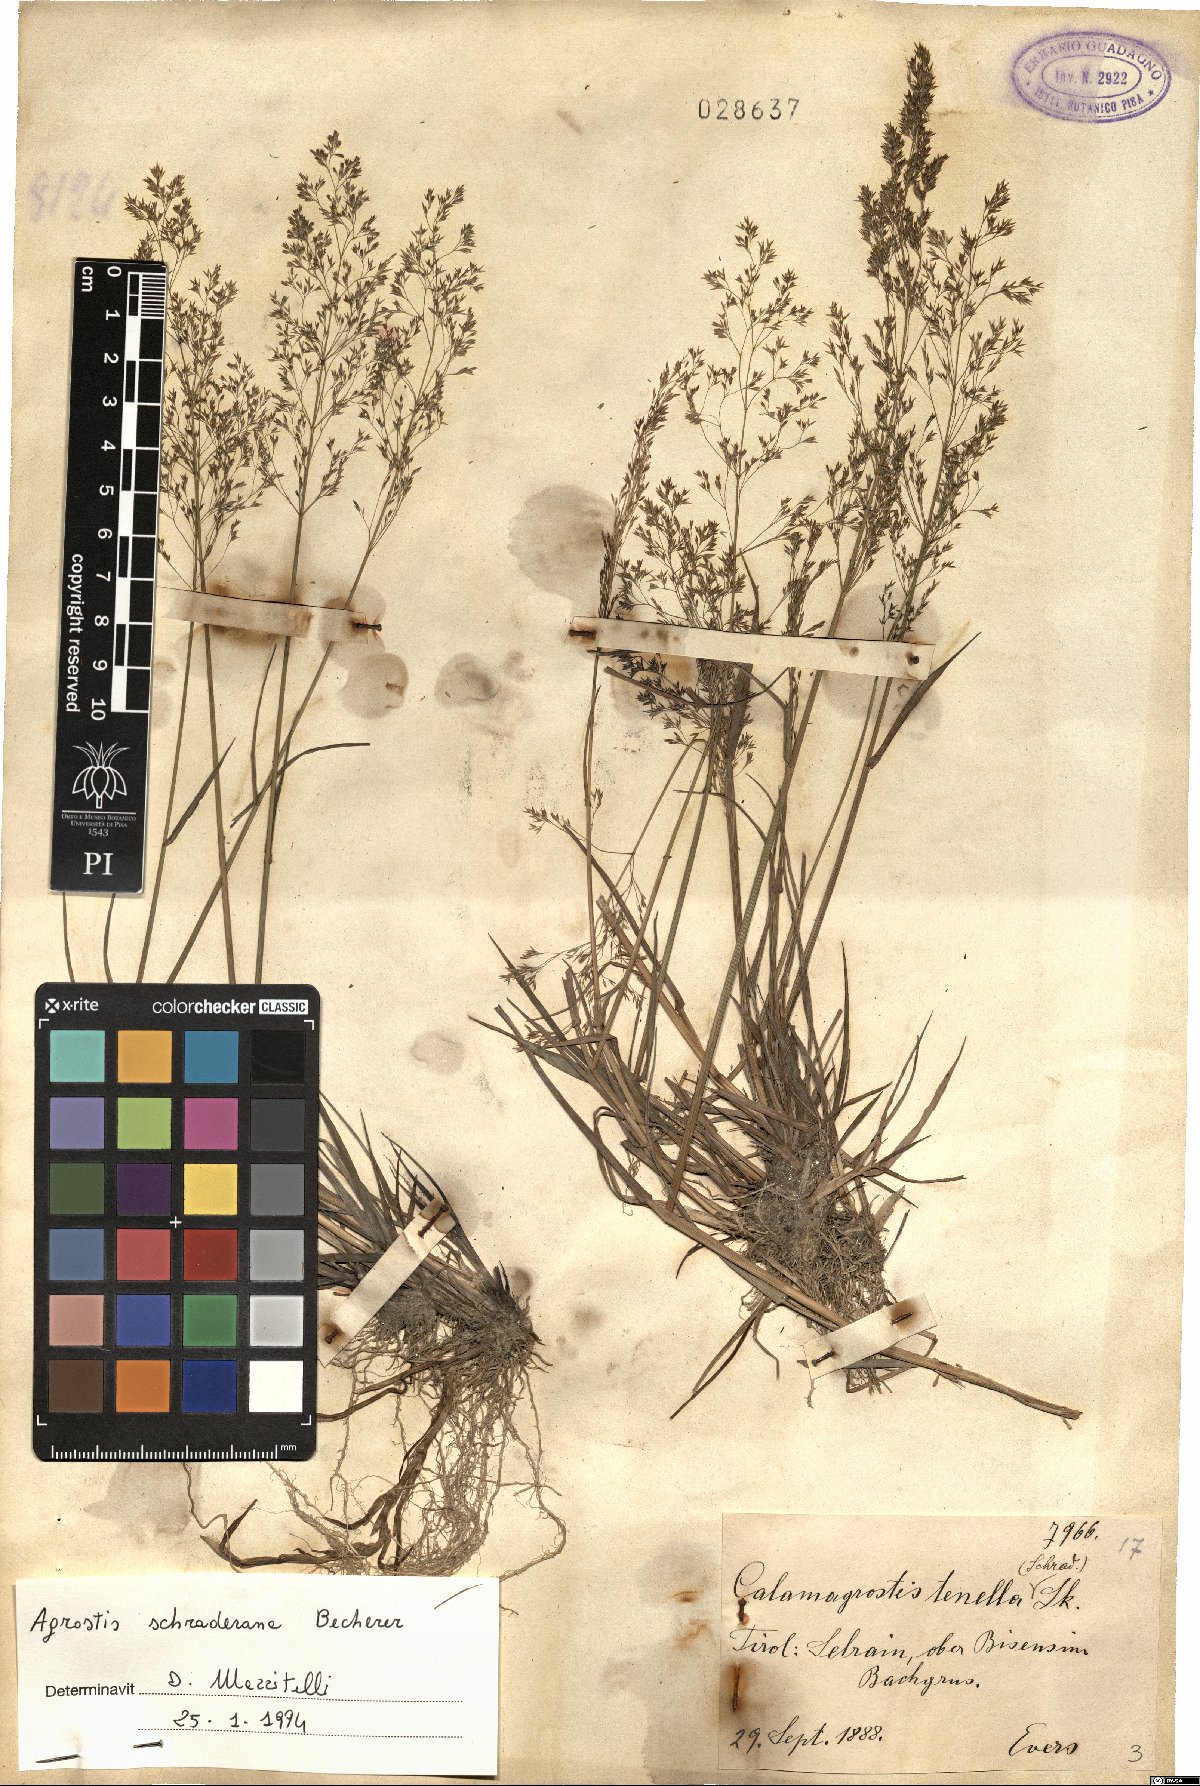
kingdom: Plantae
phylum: Tracheophyta
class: Liliopsida
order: Poales
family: Poaceae
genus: Agrostis
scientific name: Agrostis schraderiana
